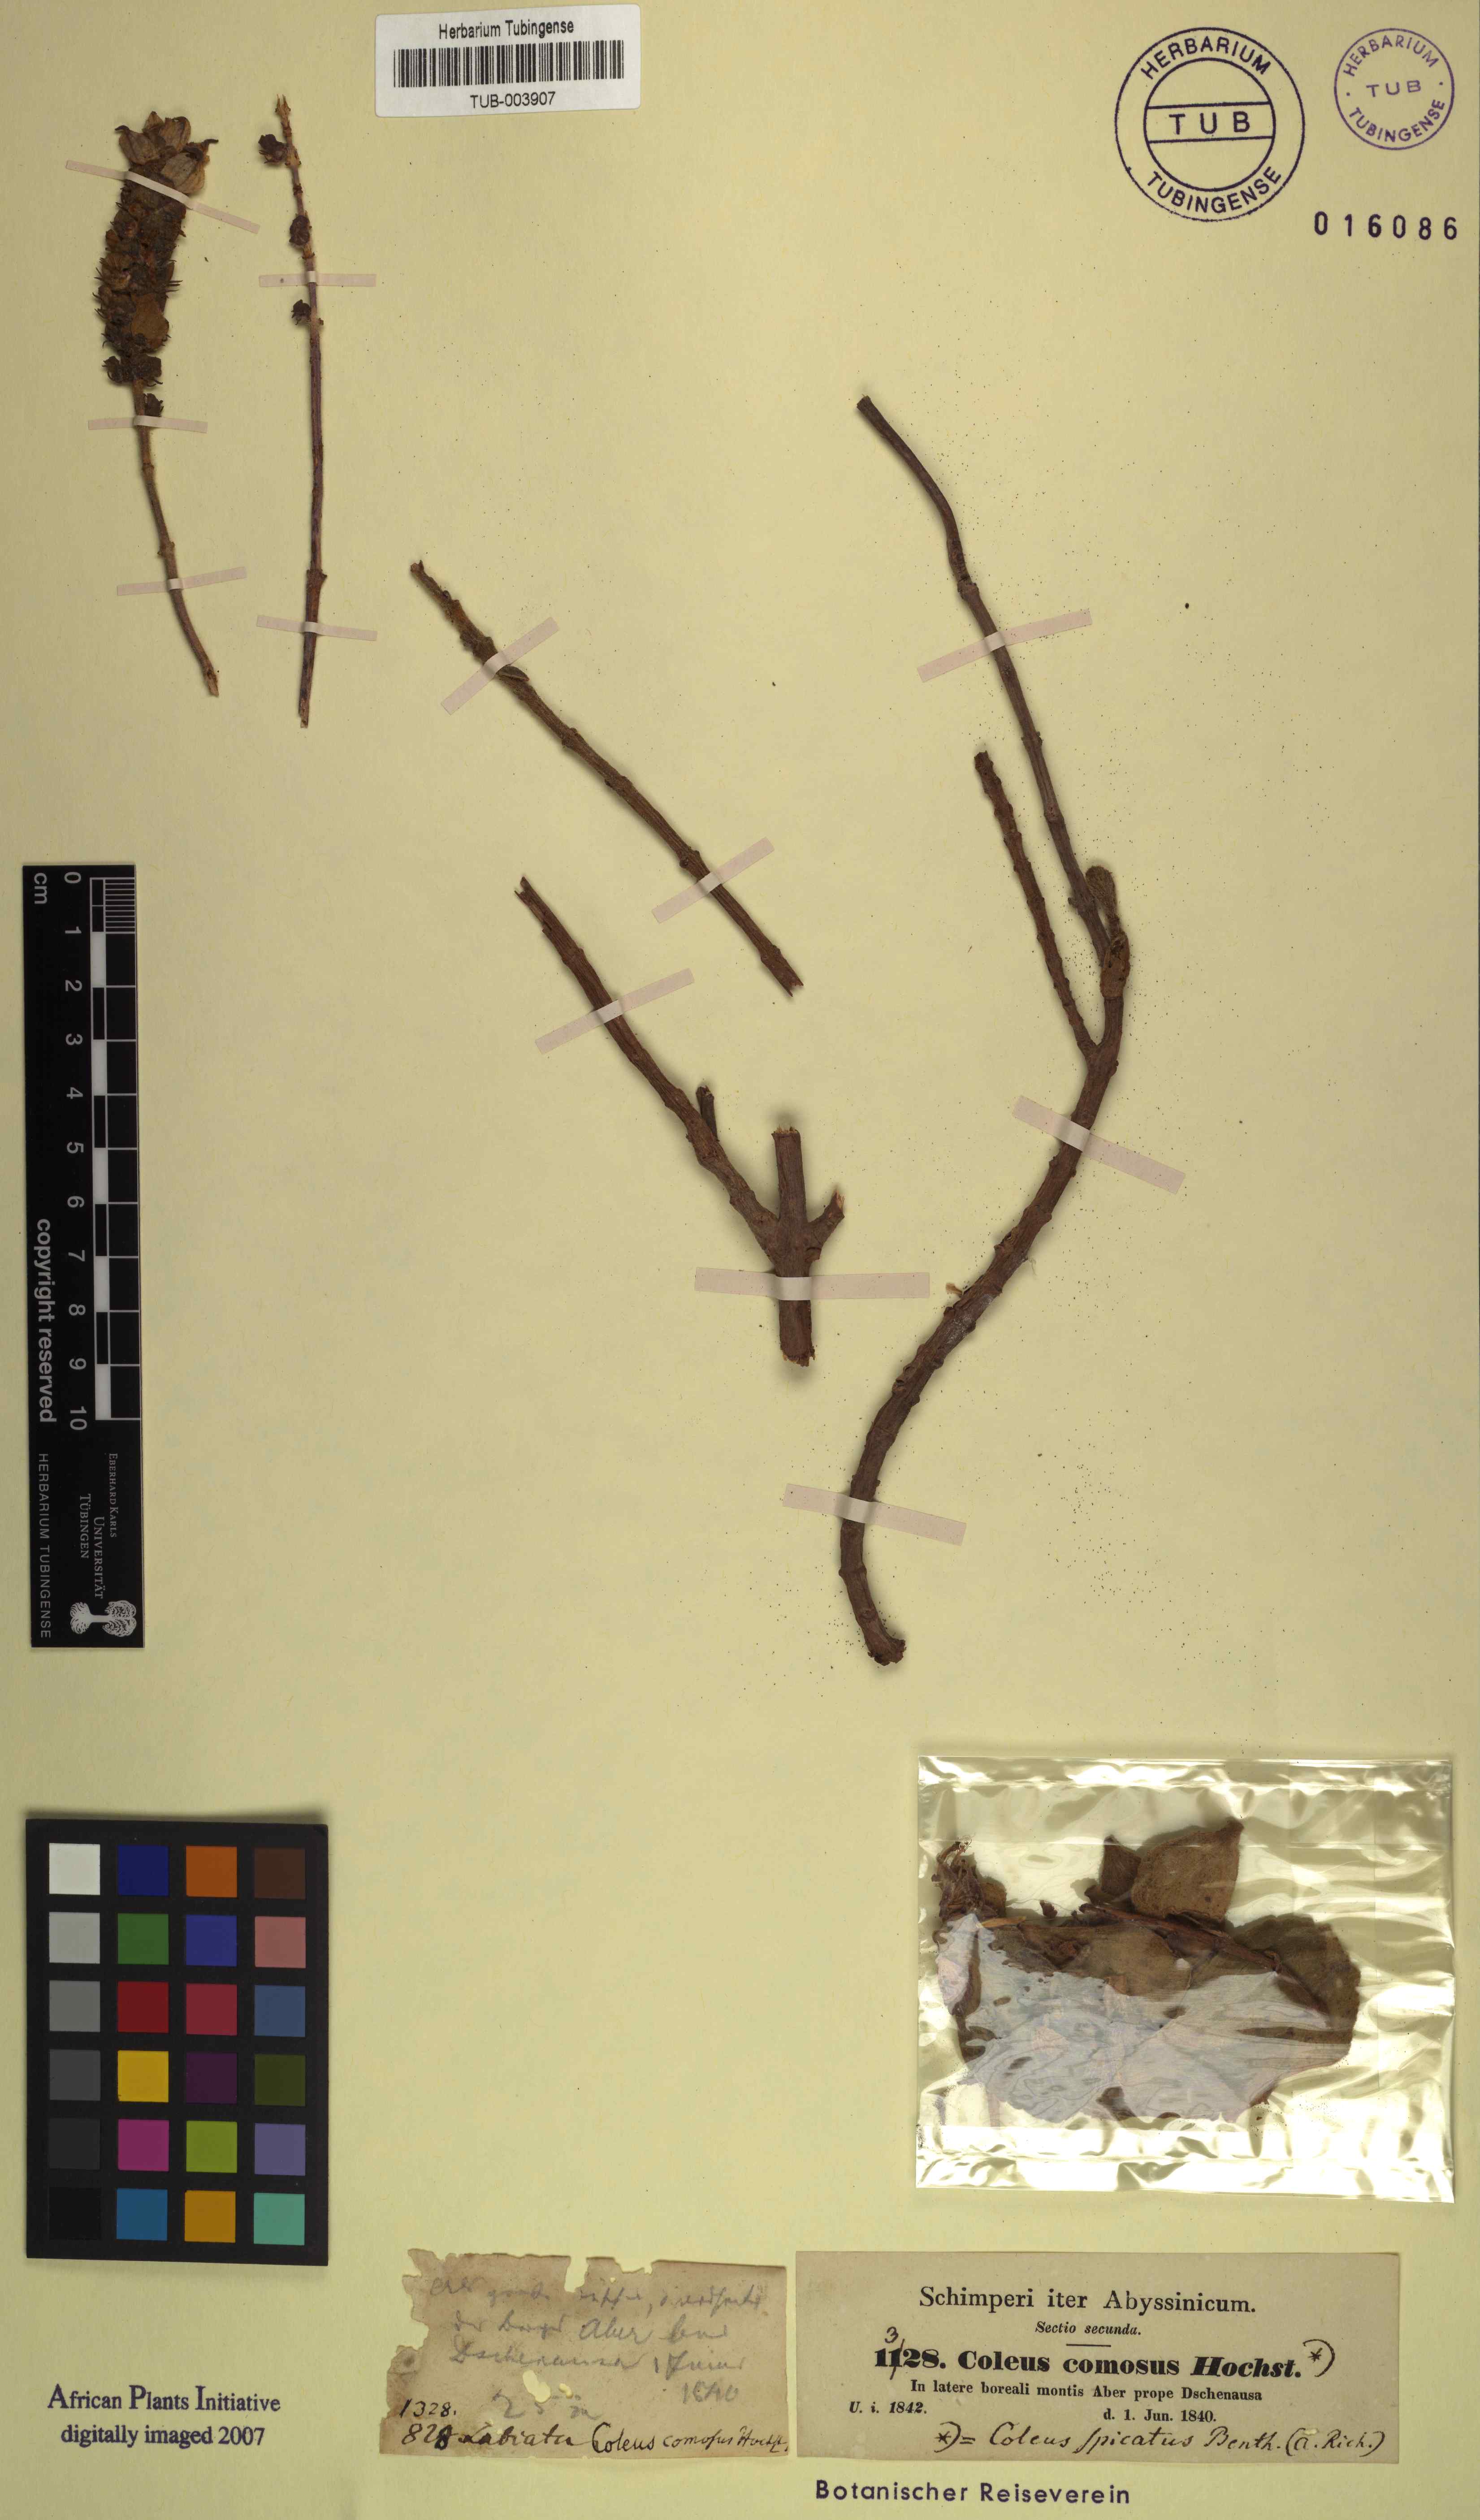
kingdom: Plantae
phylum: Tracheophyta
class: Magnoliopsida
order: Lamiales
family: Lamiaceae
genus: Coleus
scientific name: Coleus caninus
